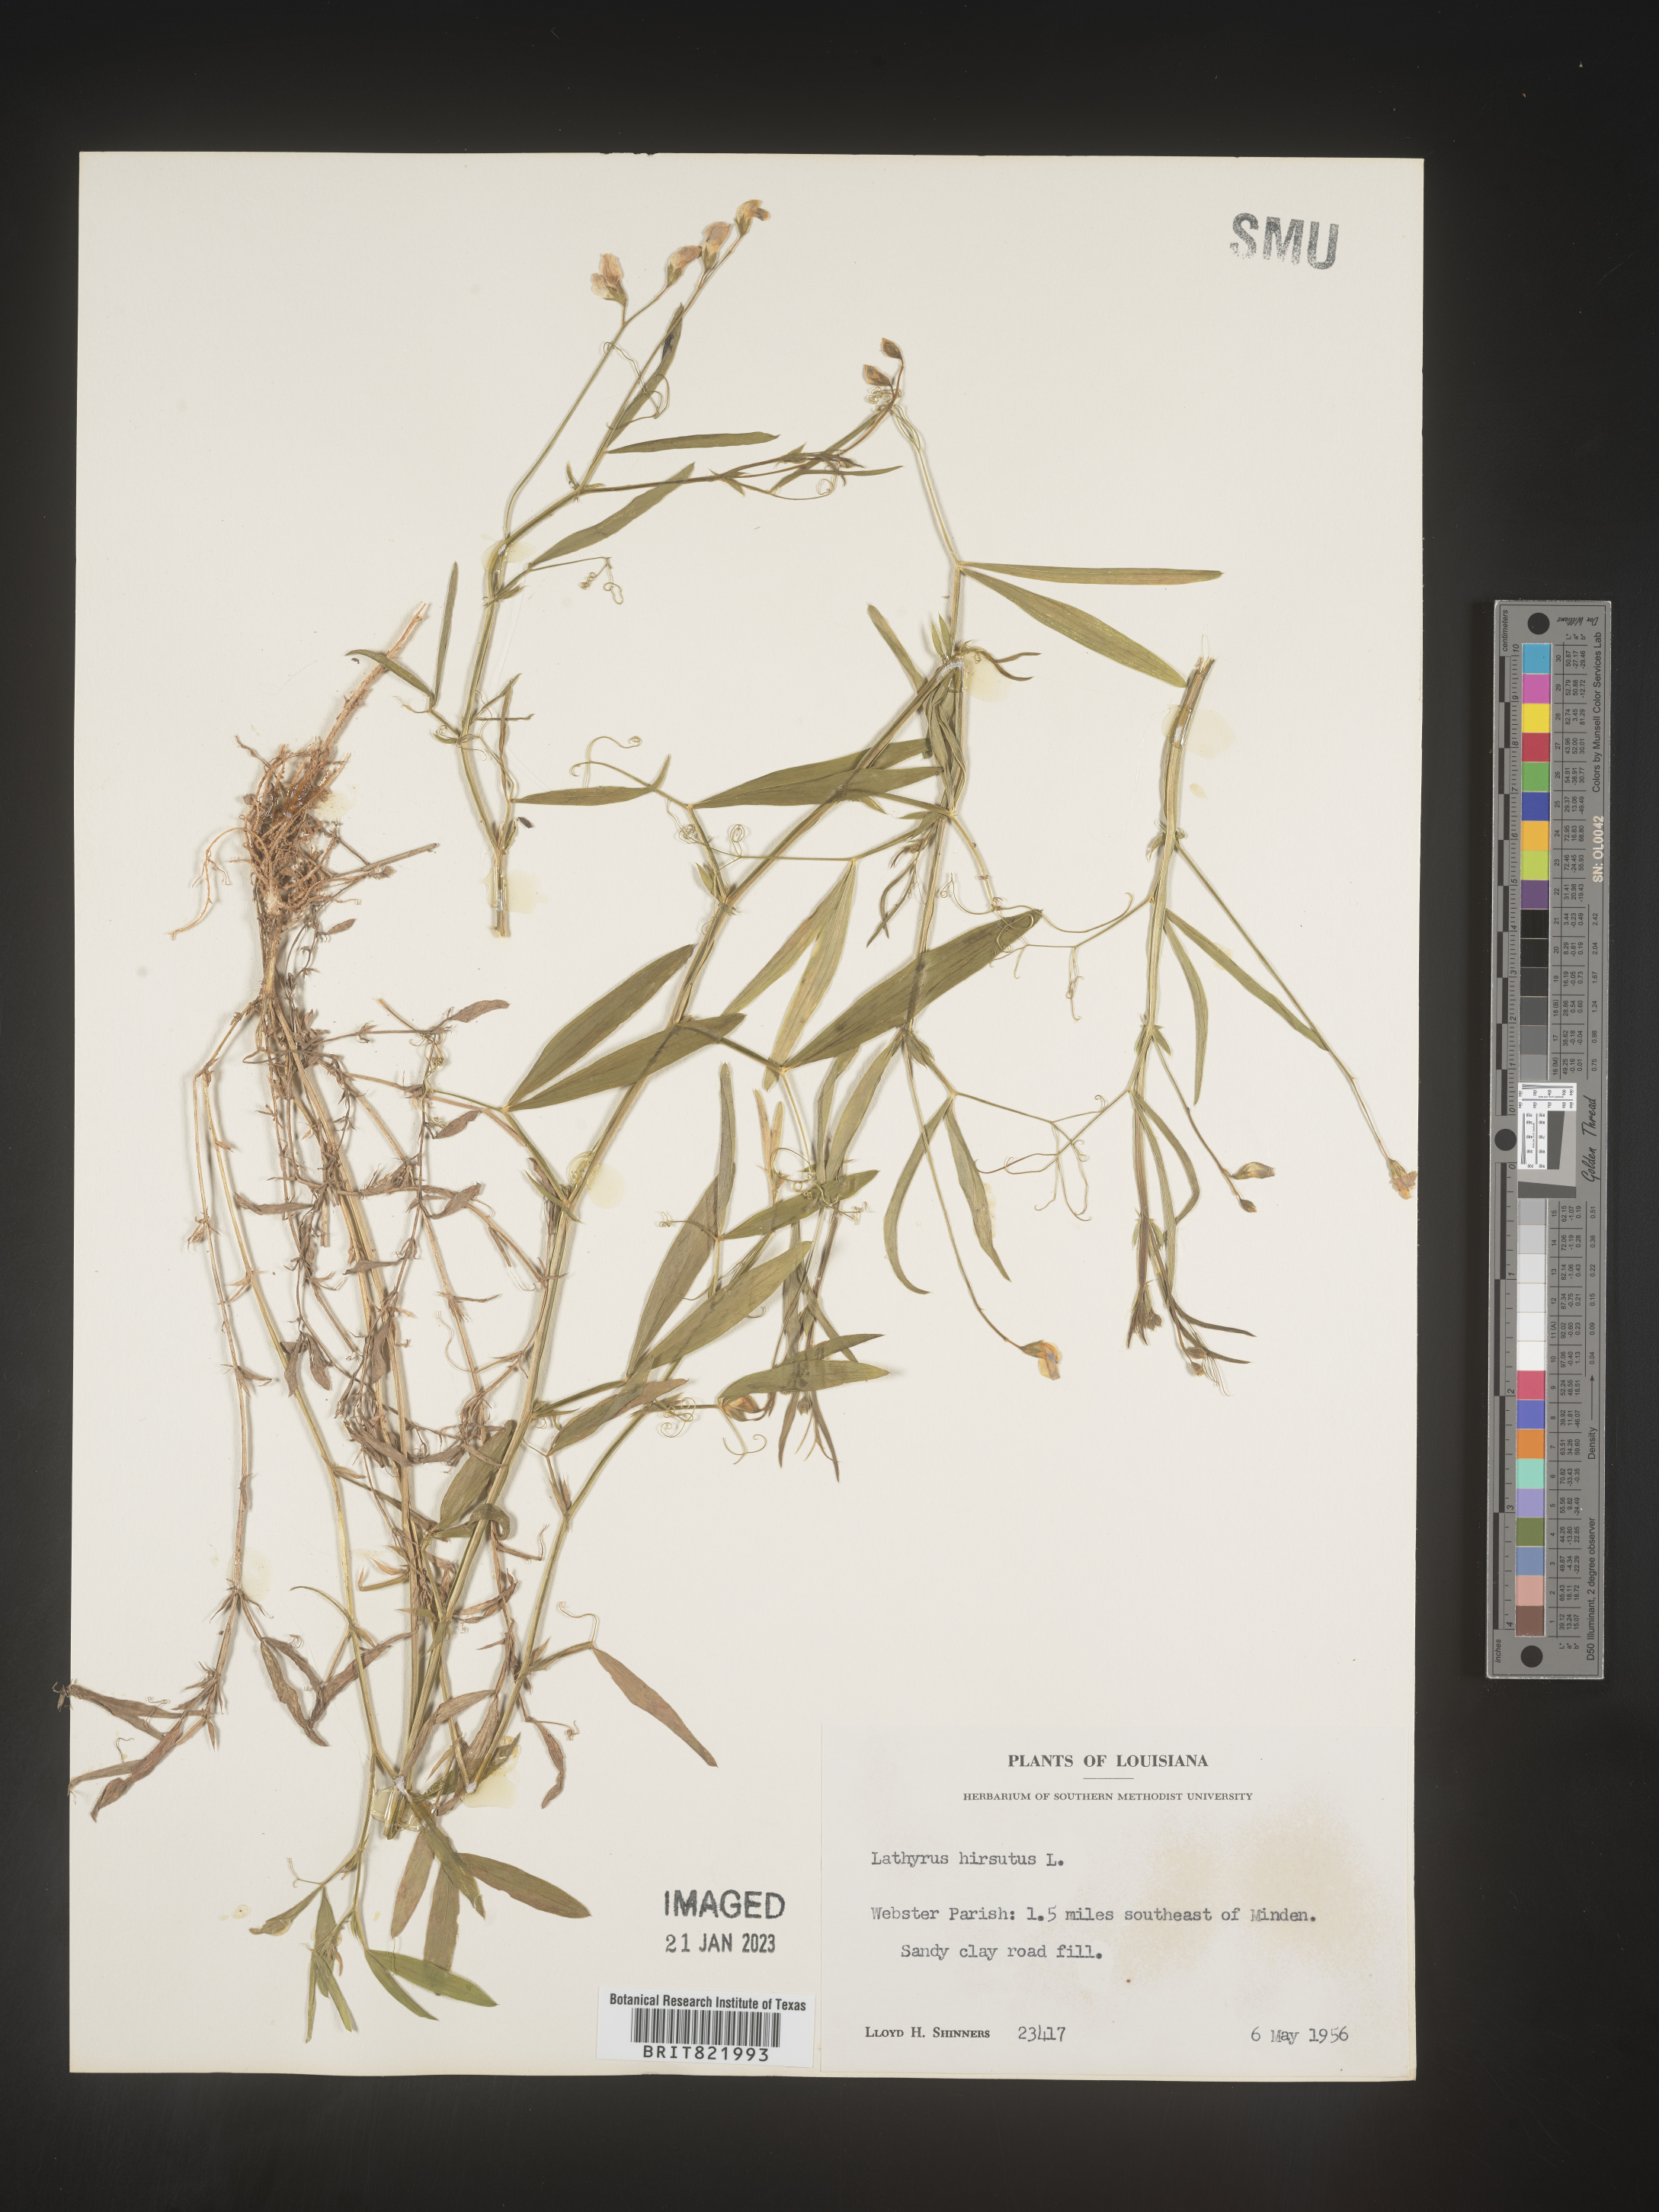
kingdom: Plantae
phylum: Tracheophyta
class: Magnoliopsida
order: Fabales
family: Fabaceae
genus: Lathyrus
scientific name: Lathyrus hirsutus
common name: Hairy vetchling
